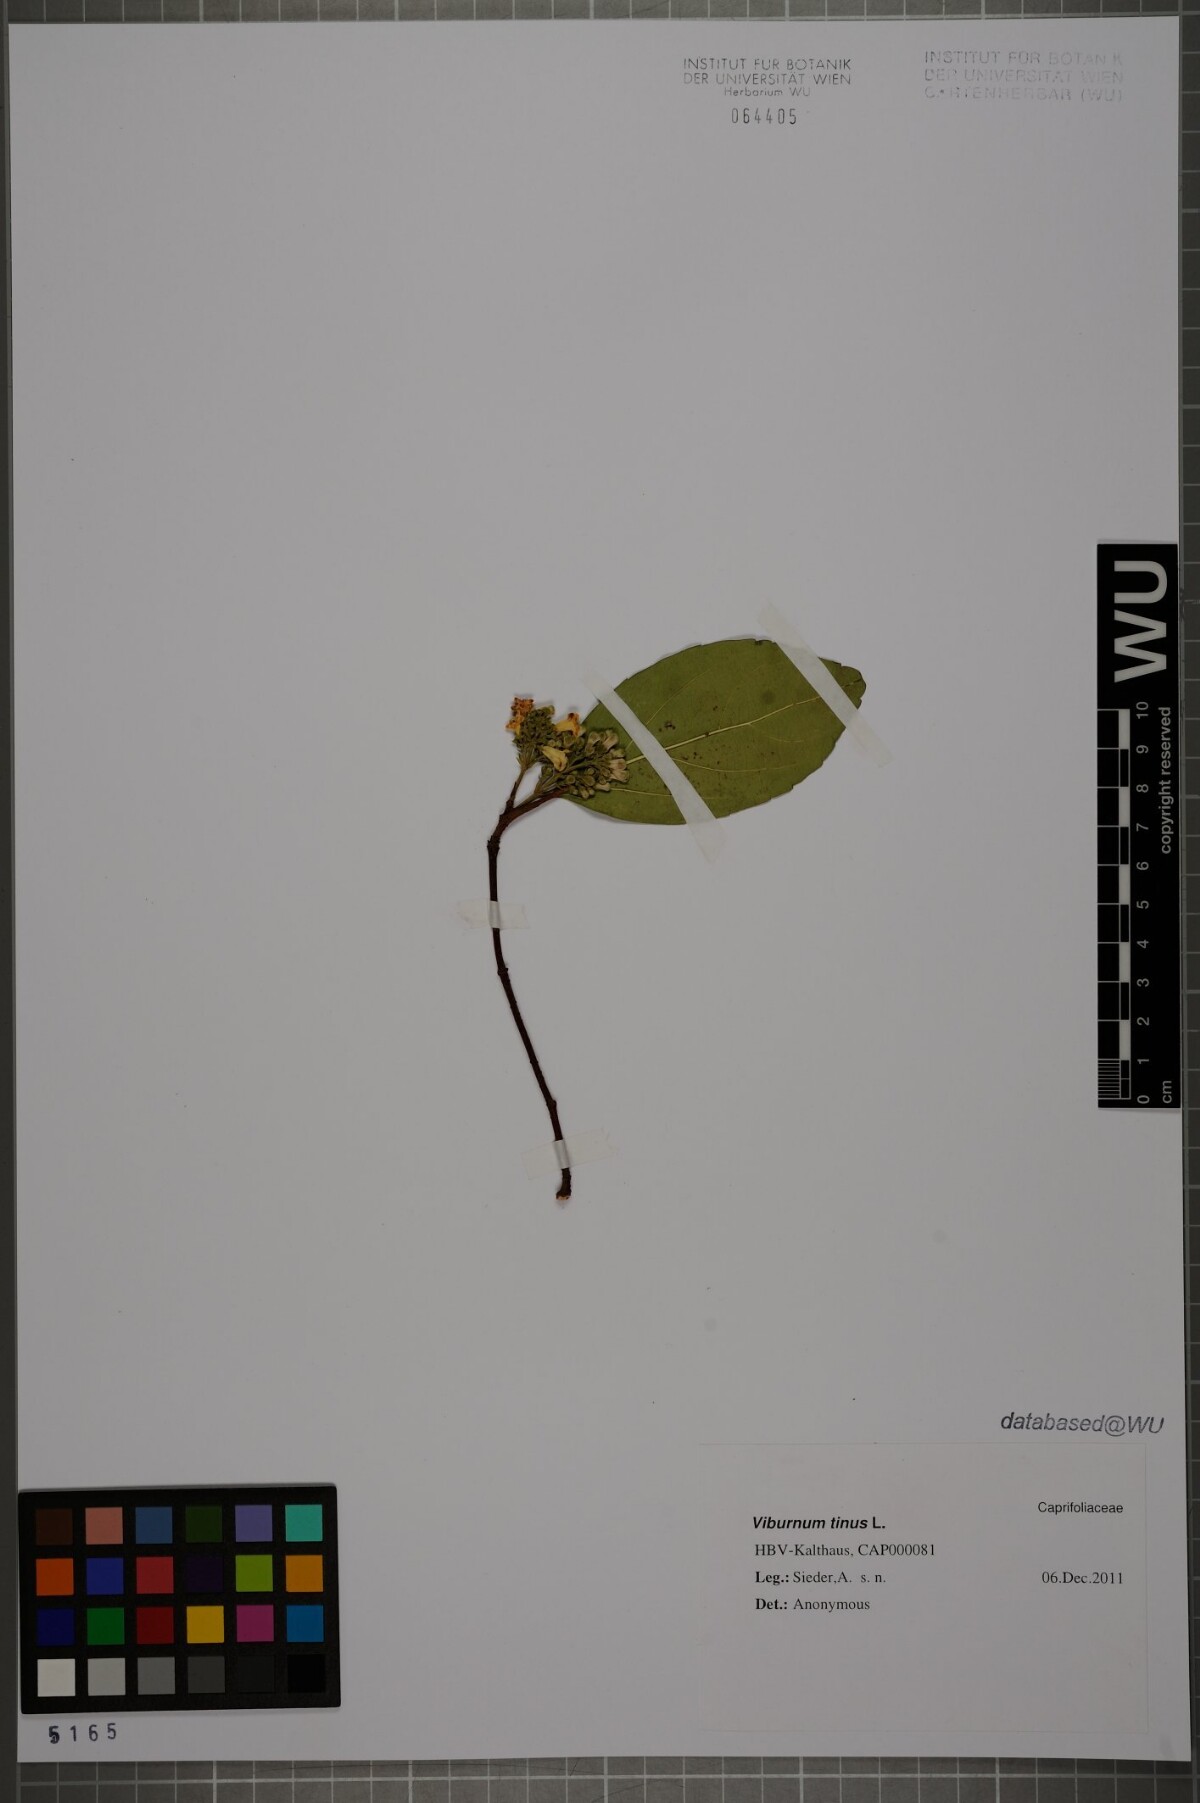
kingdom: Plantae
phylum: Tracheophyta
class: Magnoliopsida
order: Dipsacales
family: Viburnaceae
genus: Viburnum
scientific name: Viburnum suspensum
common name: Viburnum
